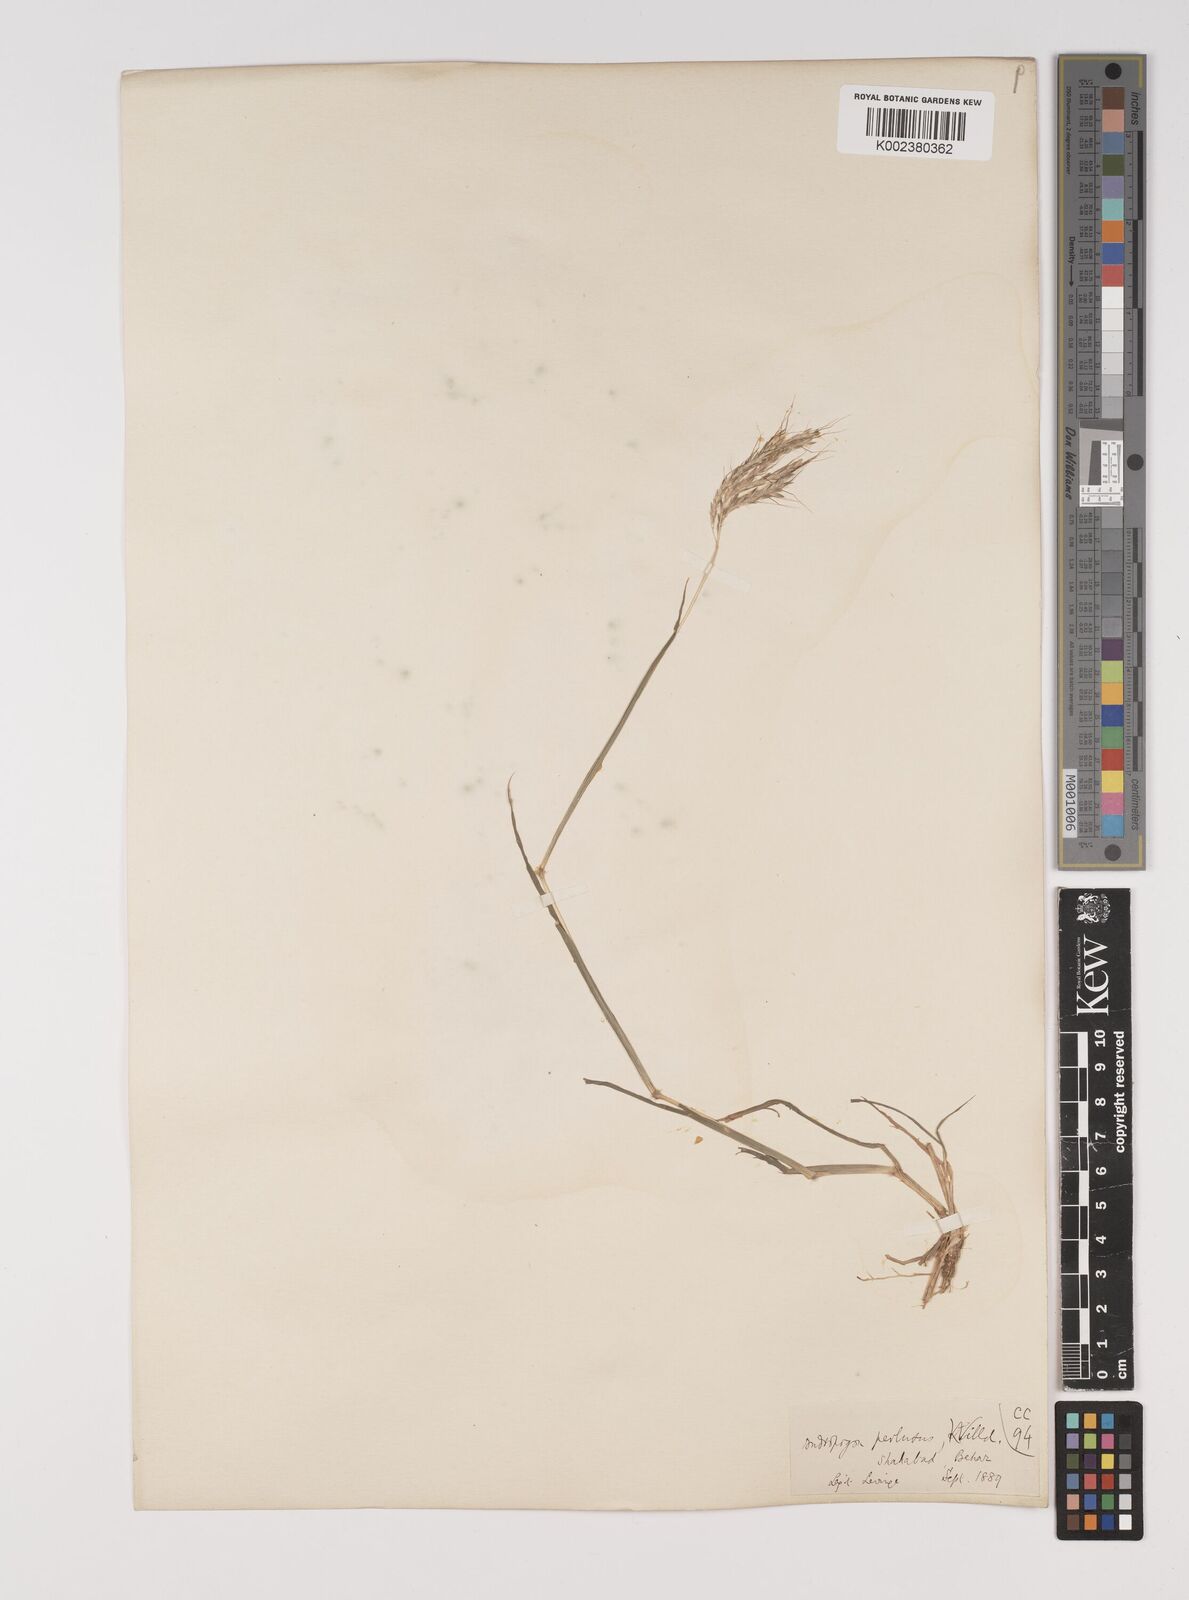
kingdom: Plantae
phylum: Tracheophyta
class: Liliopsida
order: Poales
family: Poaceae
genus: Bothriochloa
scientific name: Bothriochloa pertusa
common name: Pitted beardgrass
